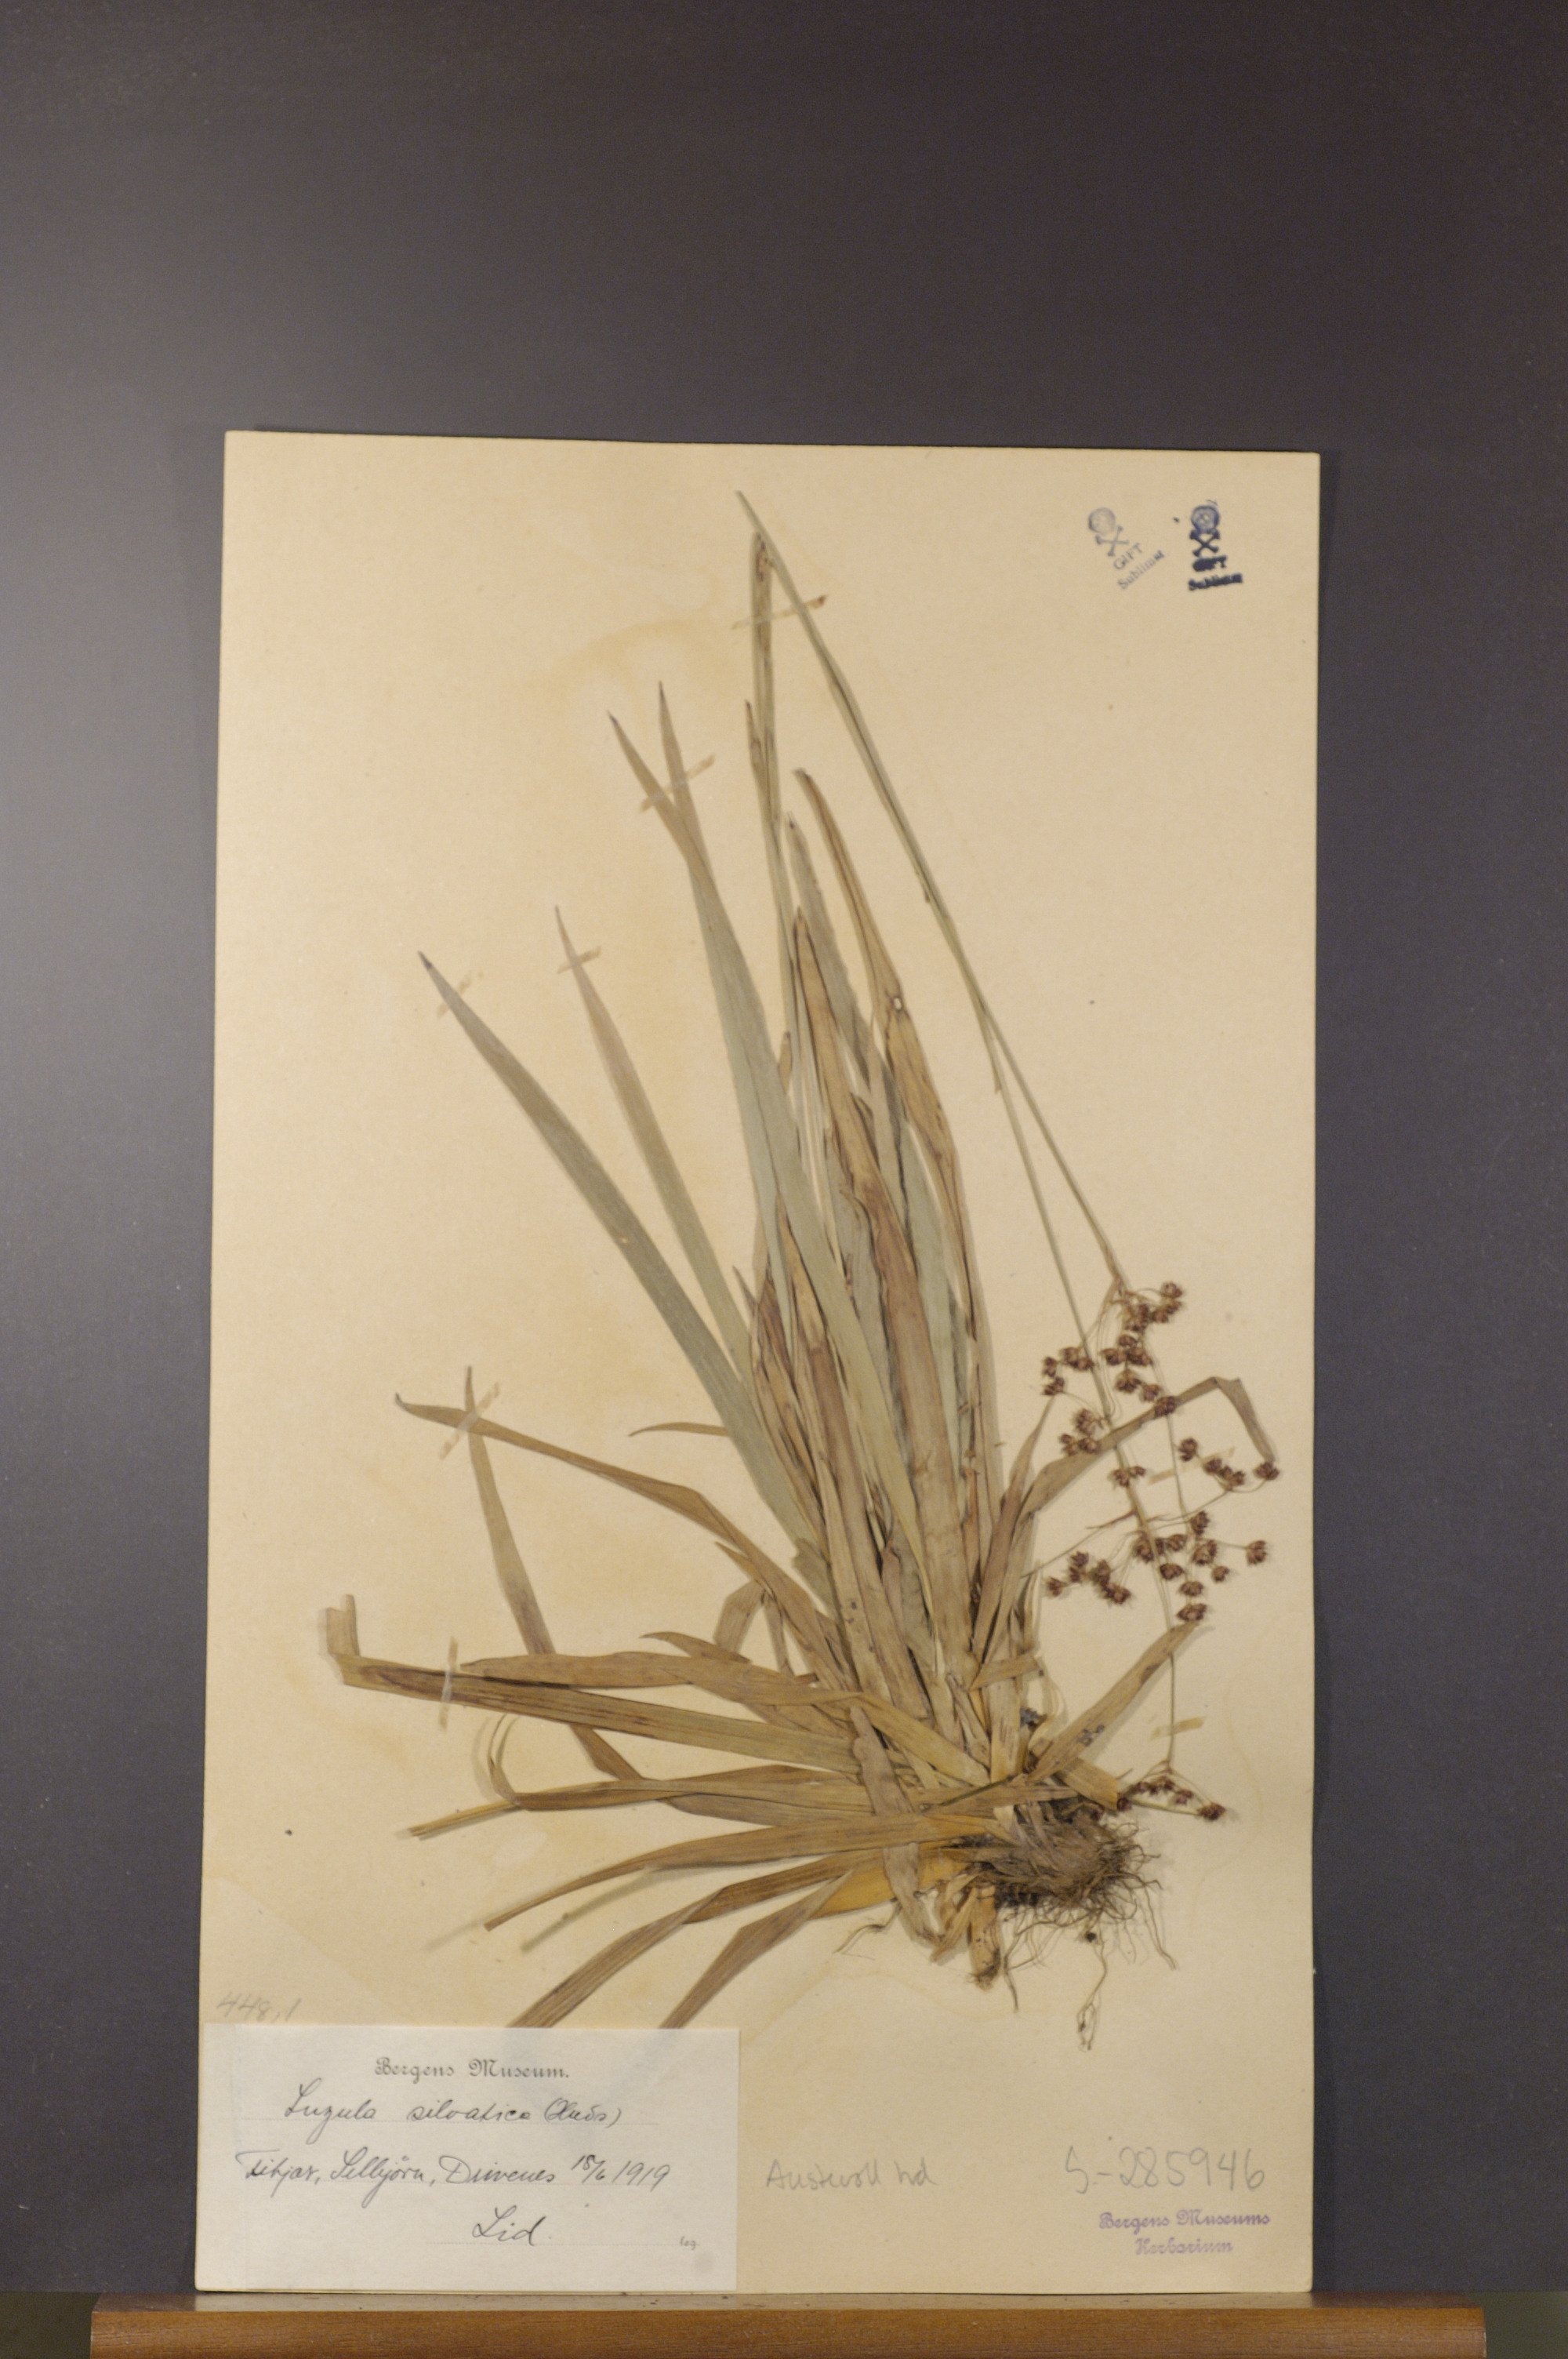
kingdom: Plantae
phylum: Tracheophyta
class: Liliopsida
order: Poales
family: Juncaceae
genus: Luzula
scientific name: Luzula sylvatica
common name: Great wood-rush
